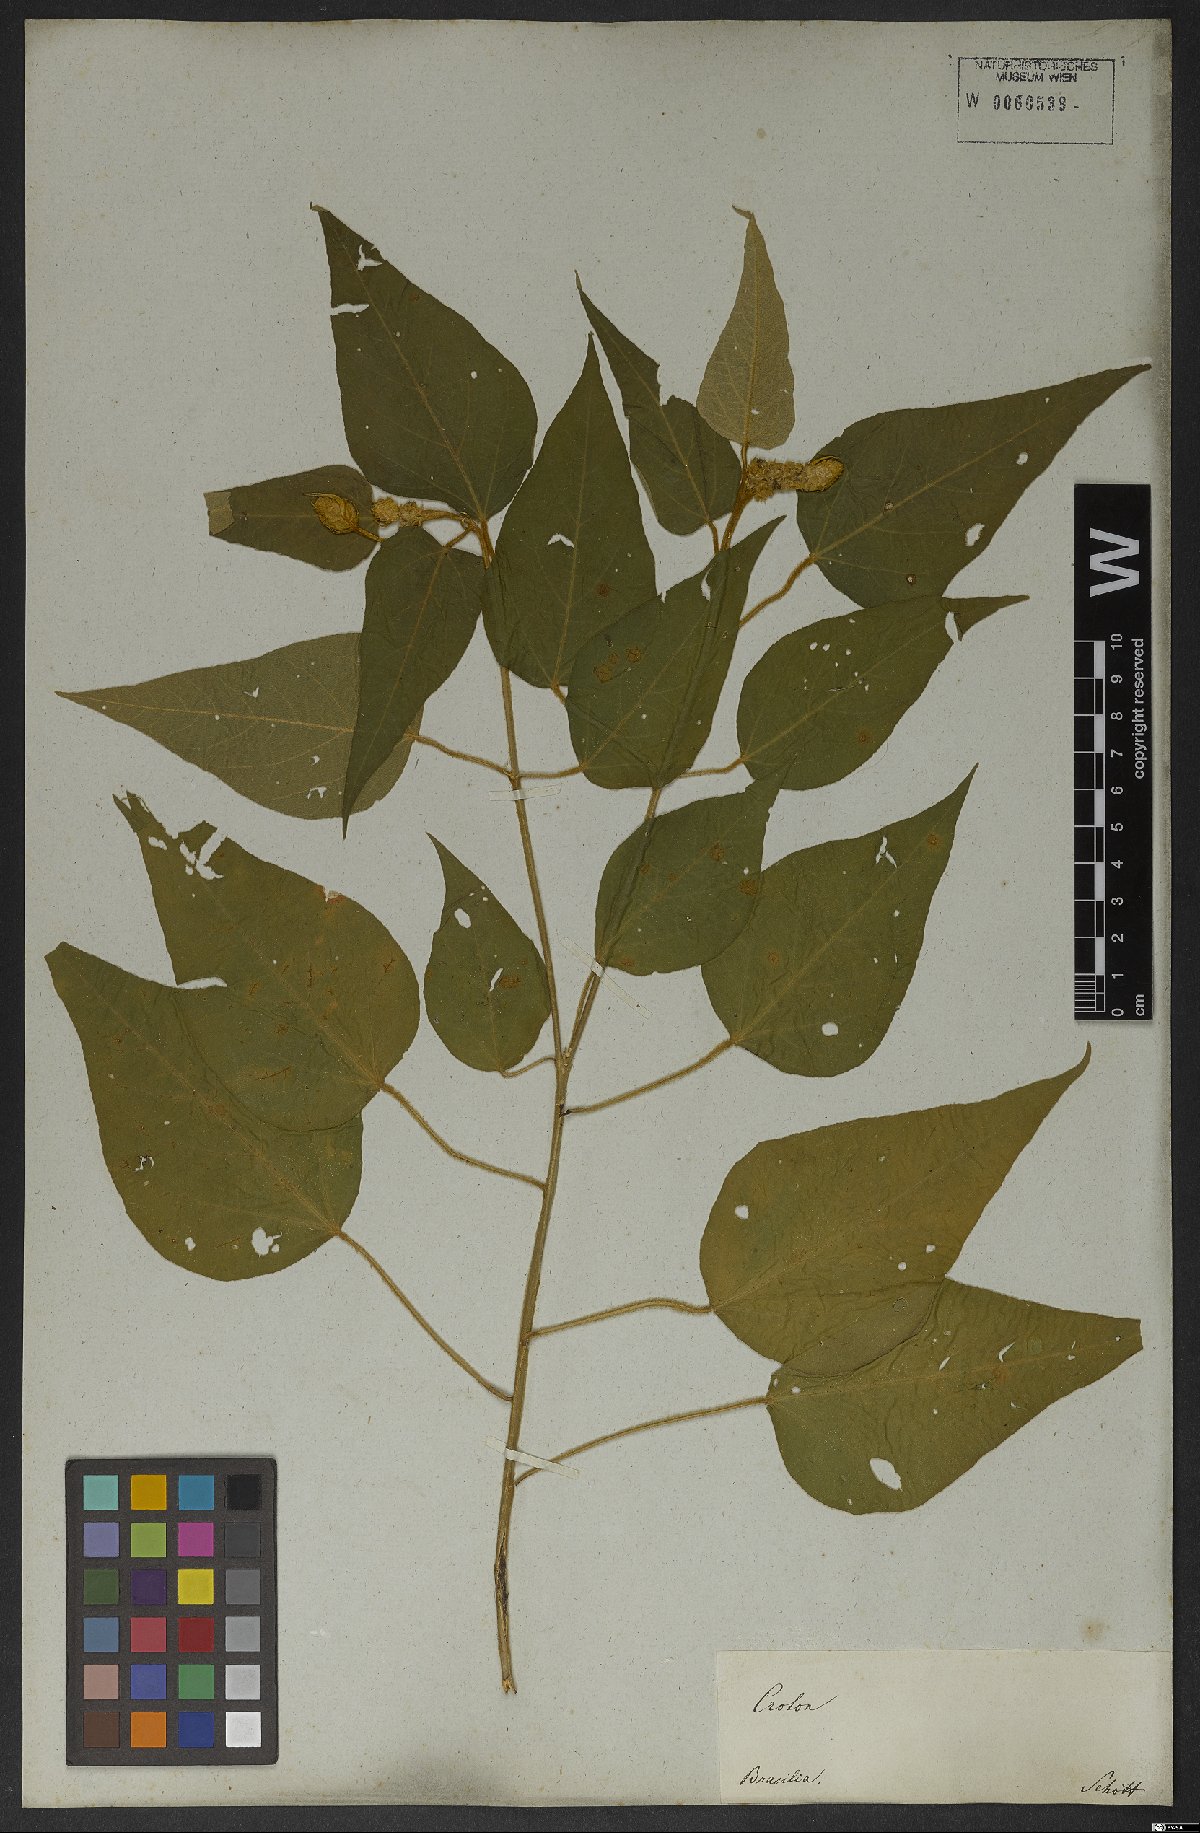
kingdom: Plantae
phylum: Tracheophyta
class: Magnoliopsida
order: Malpighiales
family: Euphorbiaceae
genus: Croton
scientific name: Croton triqueter
